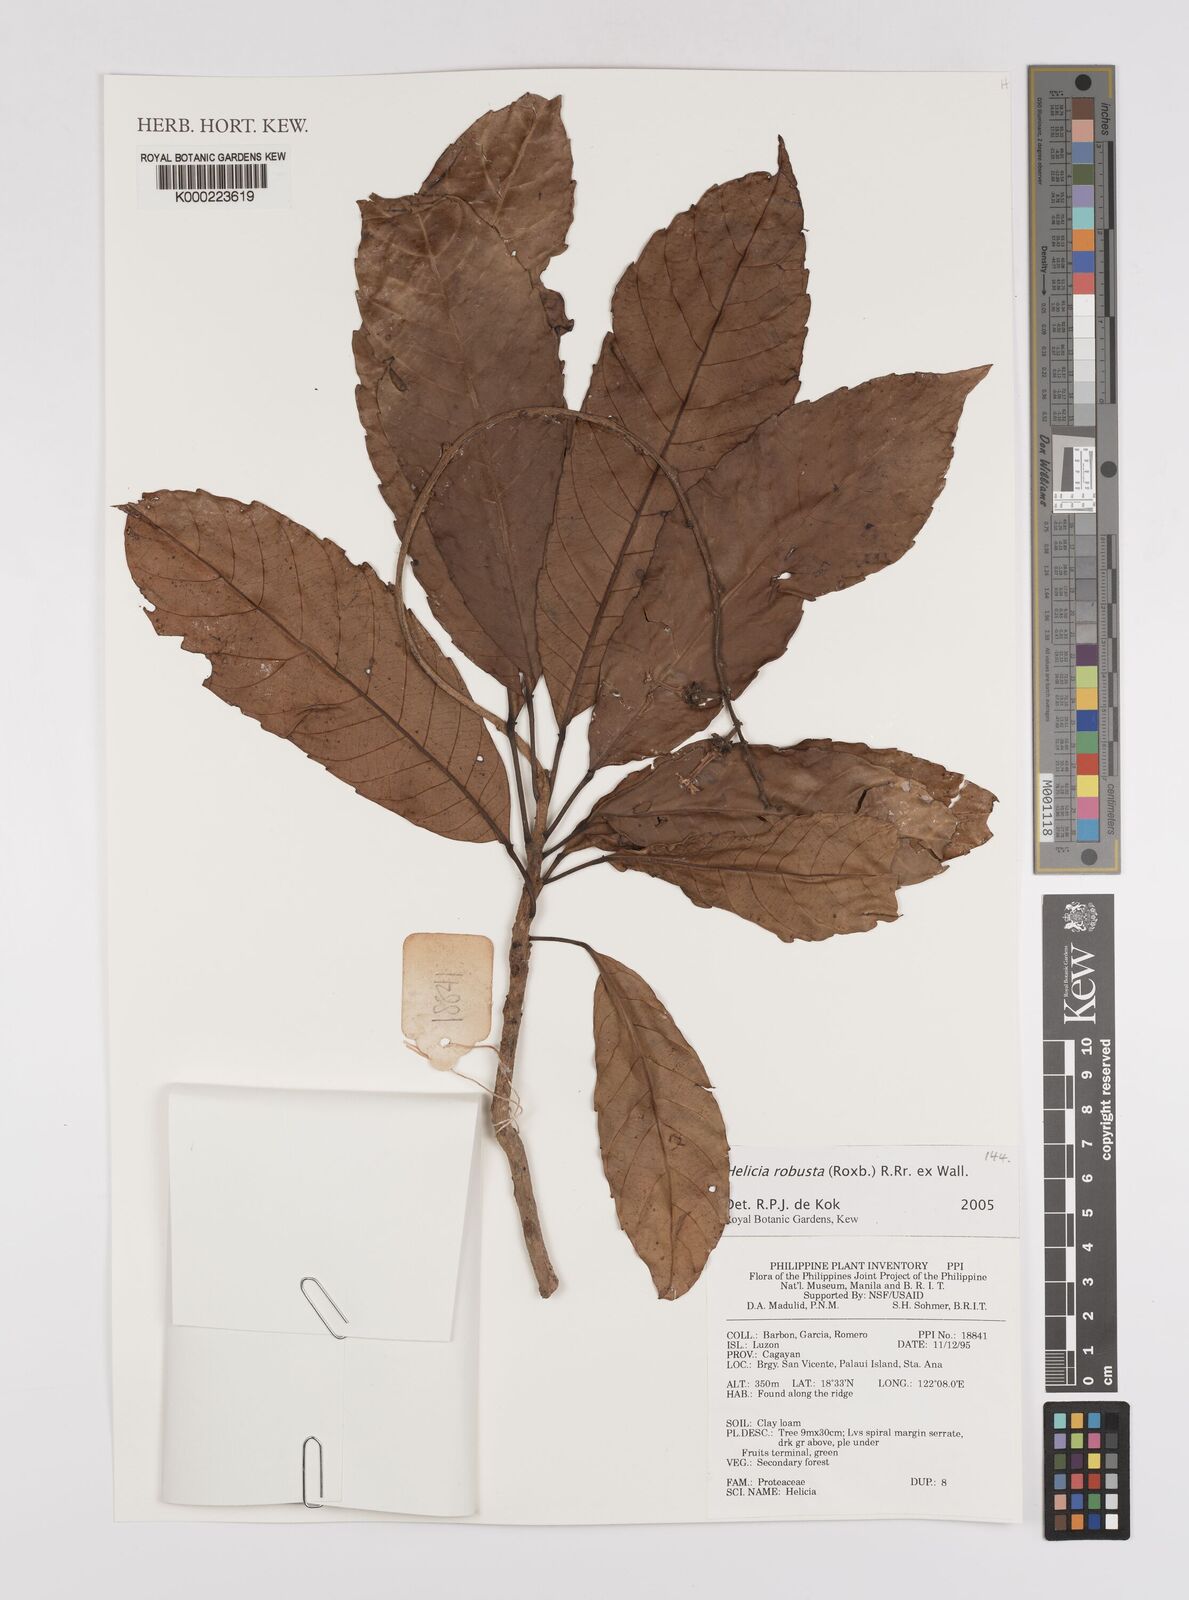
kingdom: Plantae
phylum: Tracheophyta
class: Magnoliopsida
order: Proteales
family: Proteaceae
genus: Helicia
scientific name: Helicia
